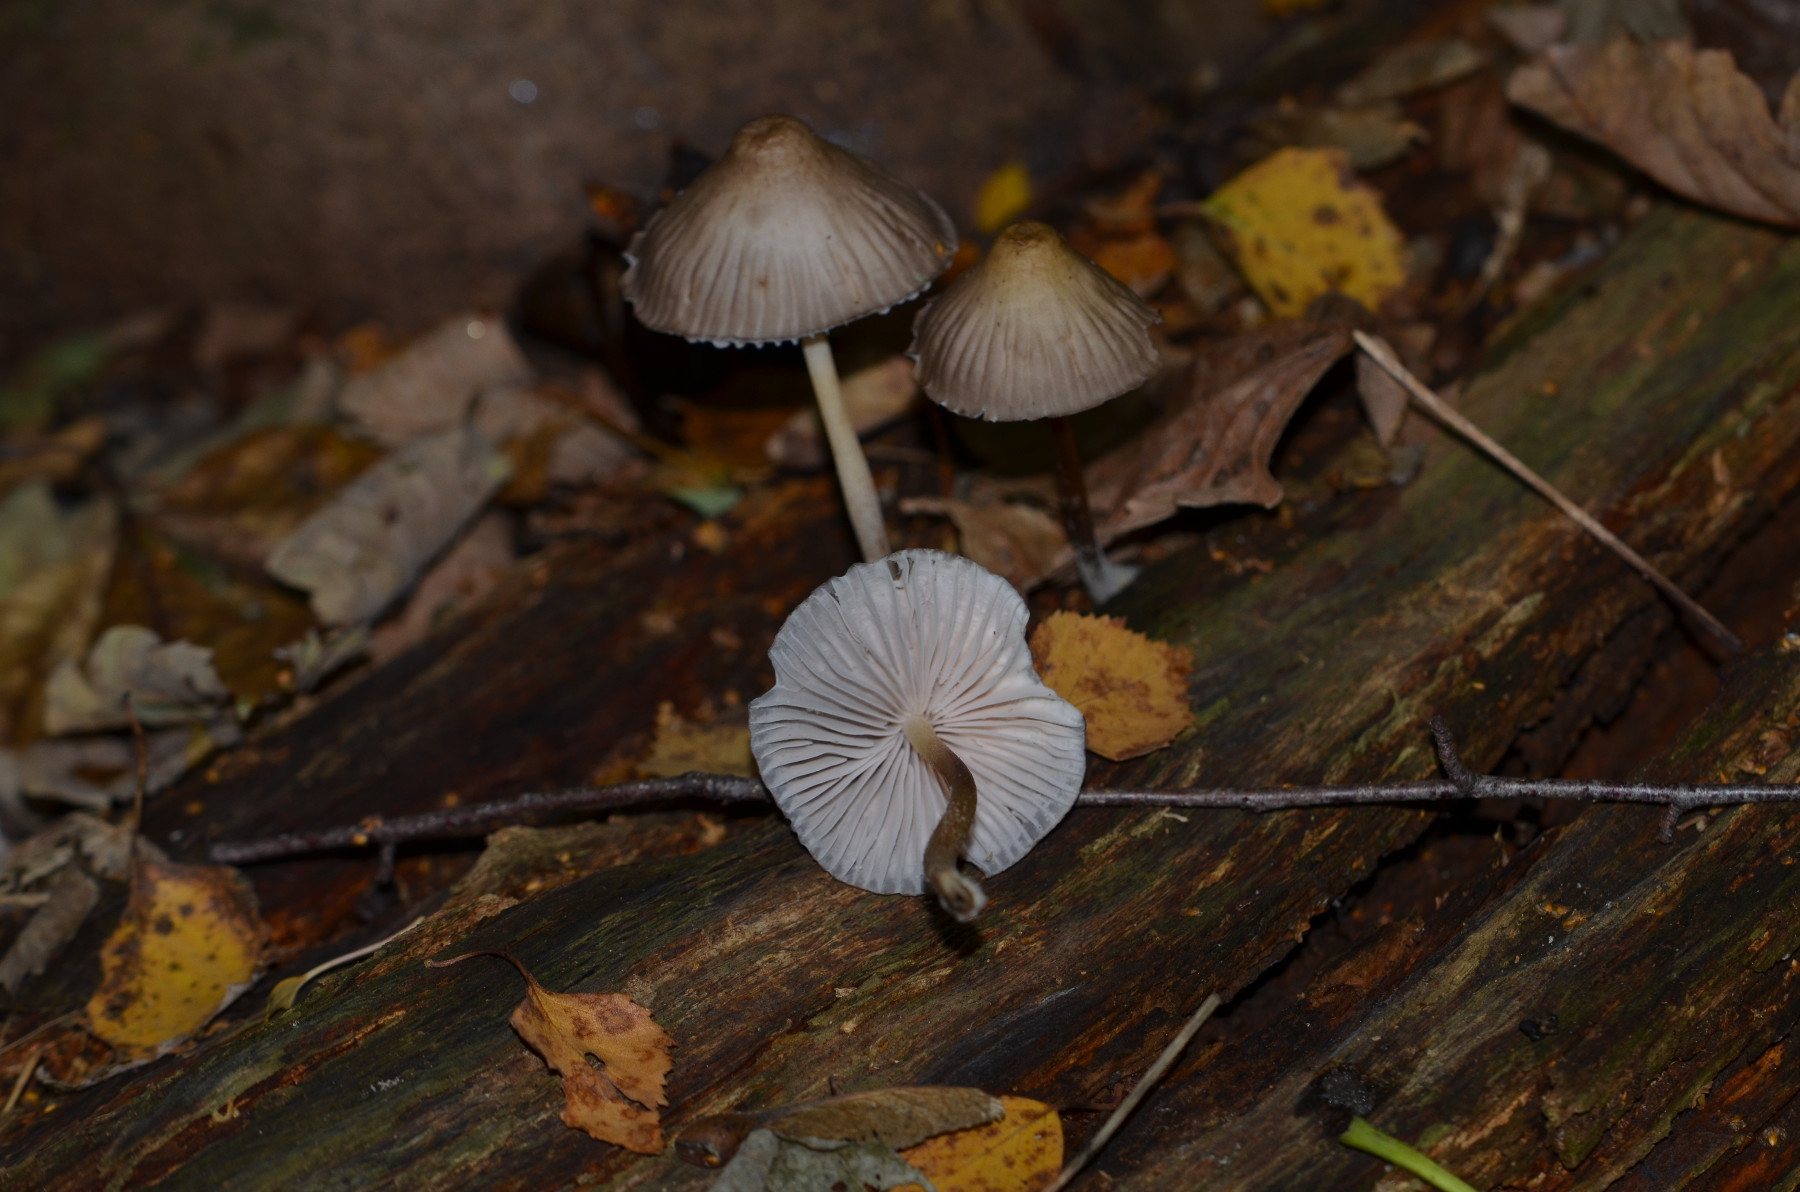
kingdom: Fungi
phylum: Basidiomycota
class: Agaricomycetes
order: Agaricales
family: Mycenaceae
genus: Mycena
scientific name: Mycena inclinata
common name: nikkende huesvamp
